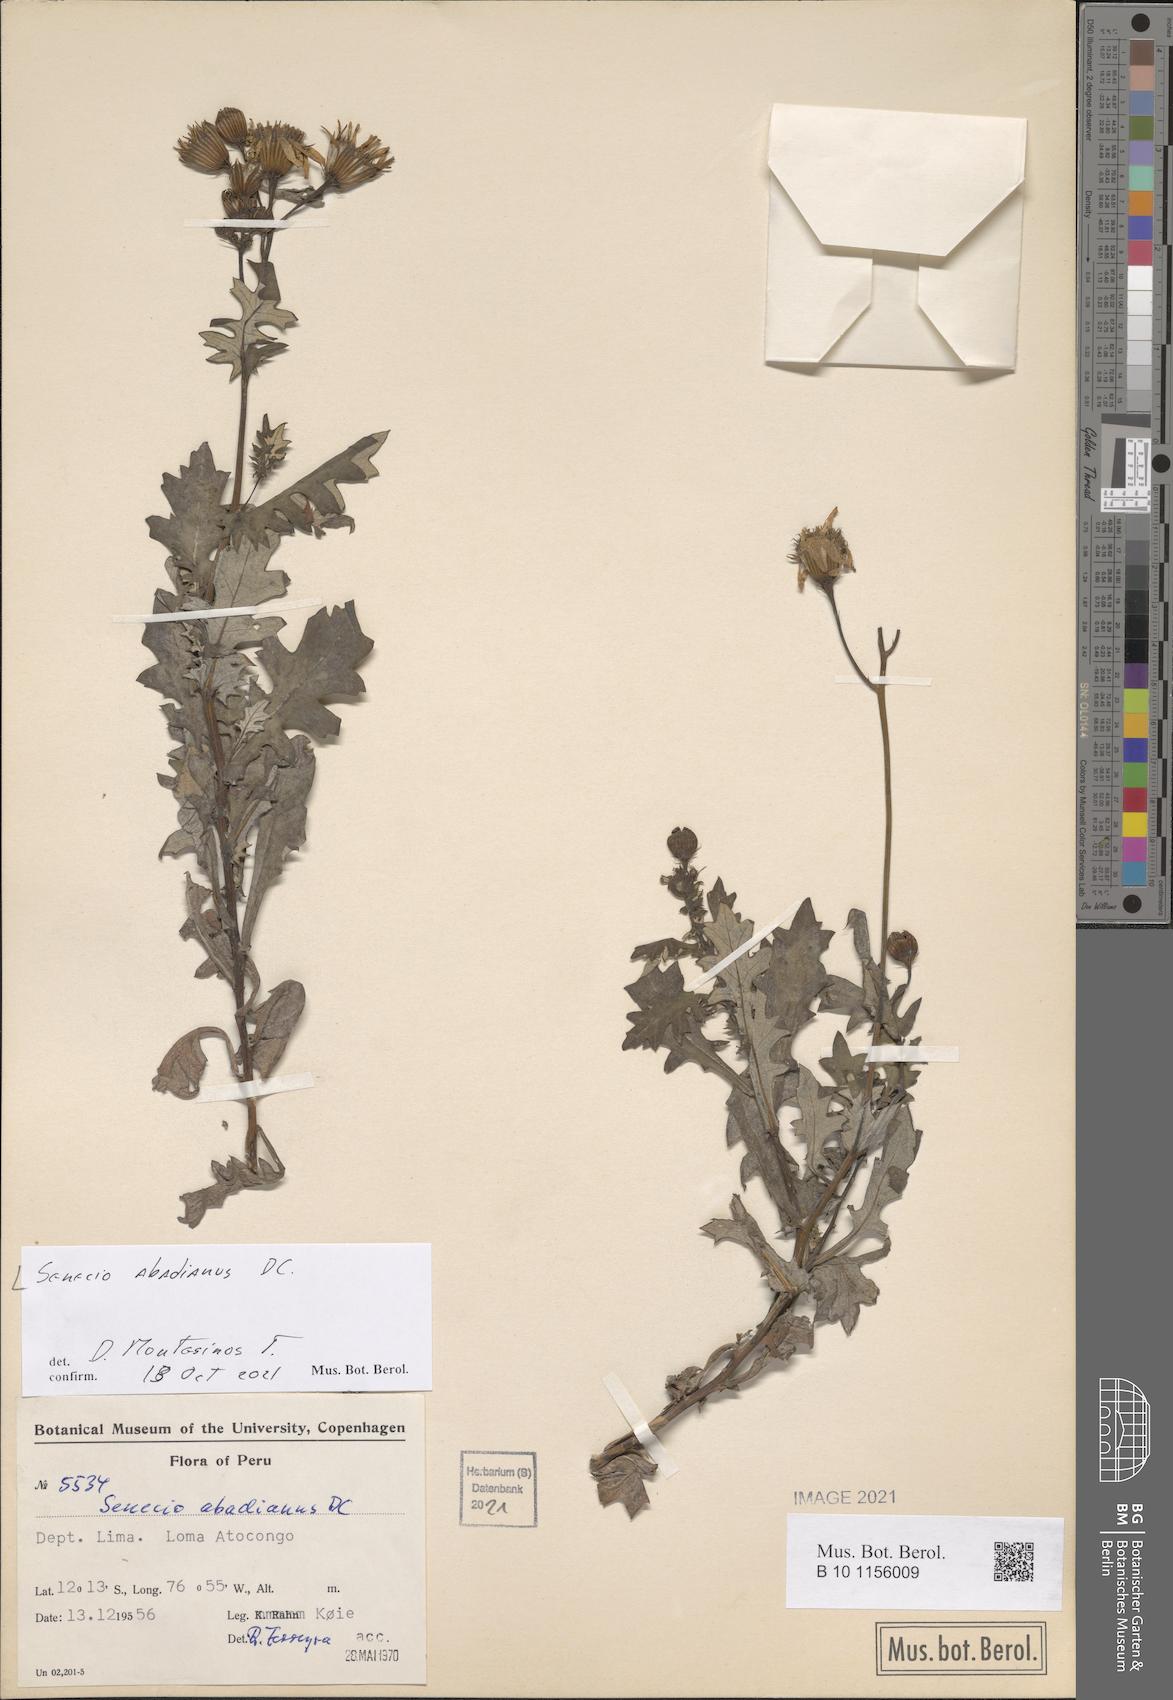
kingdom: Plantae
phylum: Tracheophyta
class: Magnoliopsida
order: Asterales
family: Asteraceae
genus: Lomanthus
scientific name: Lomanthus abadianus
